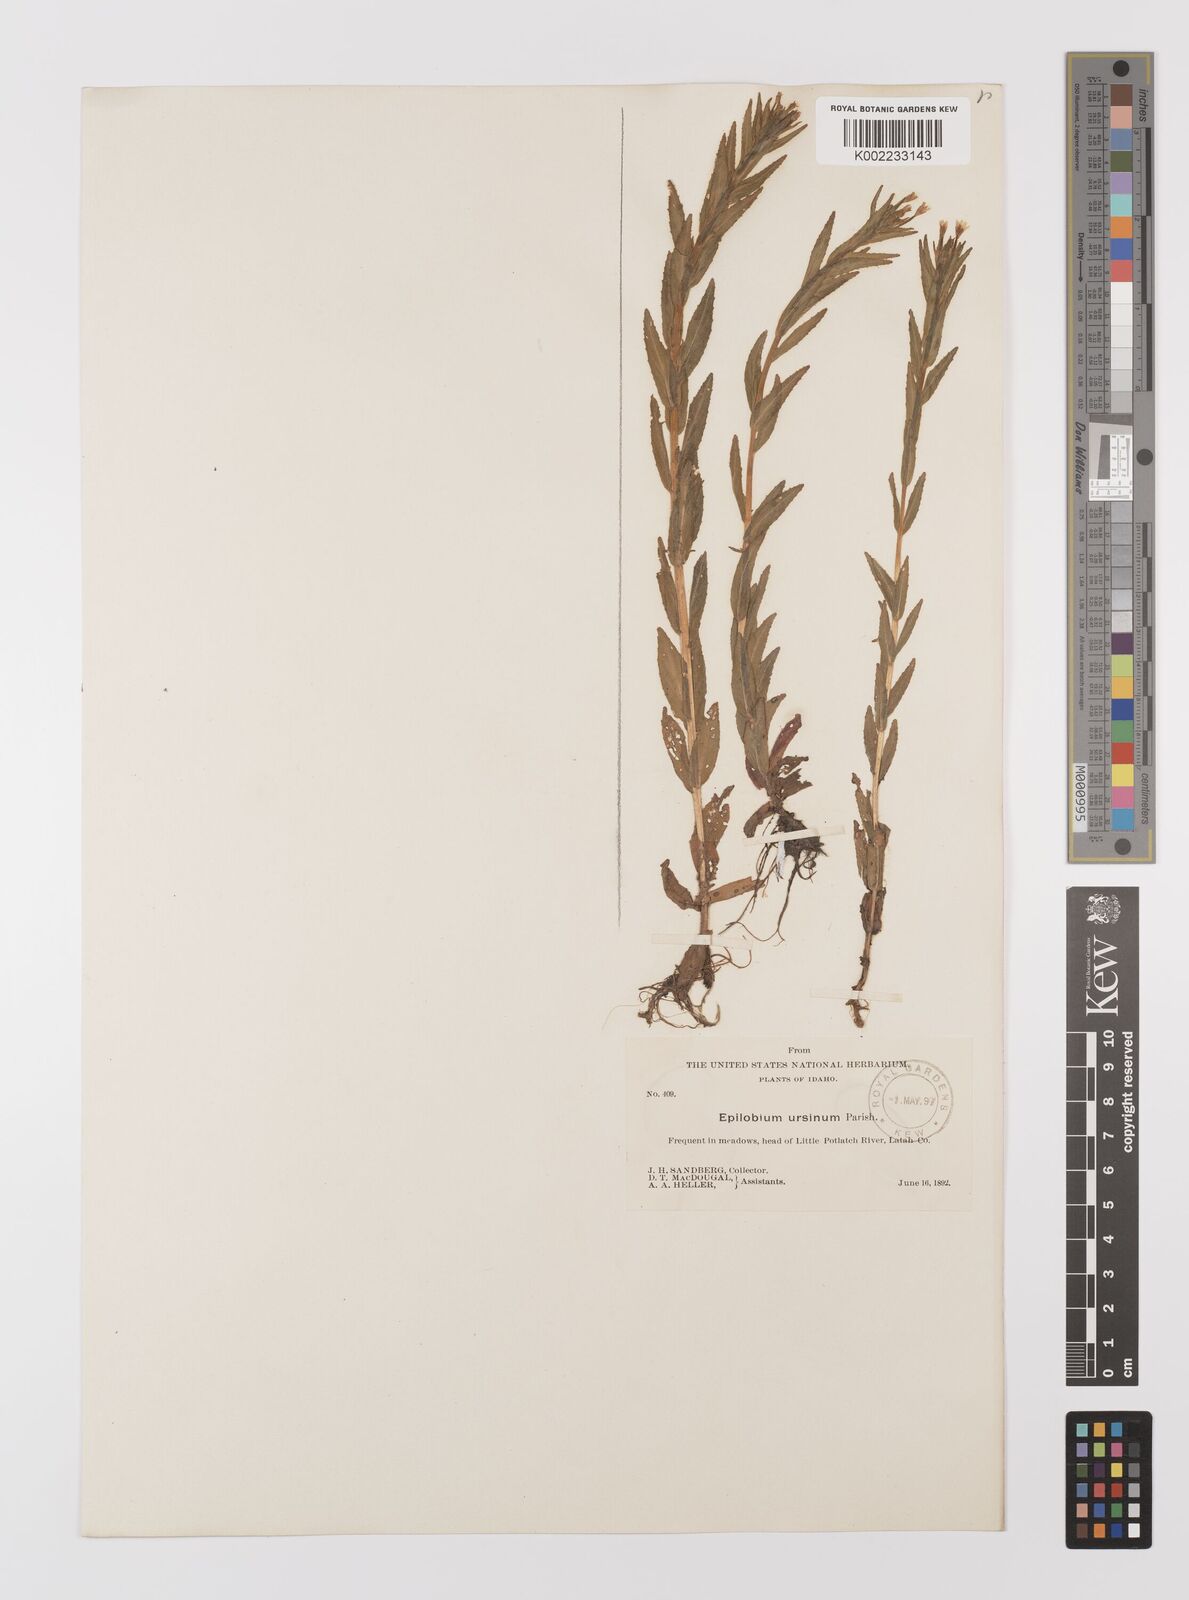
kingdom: Plantae
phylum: Tracheophyta
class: Magnoliopsida
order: Myrtales
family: Onagraceae
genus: Epilobium
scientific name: Epilobium
